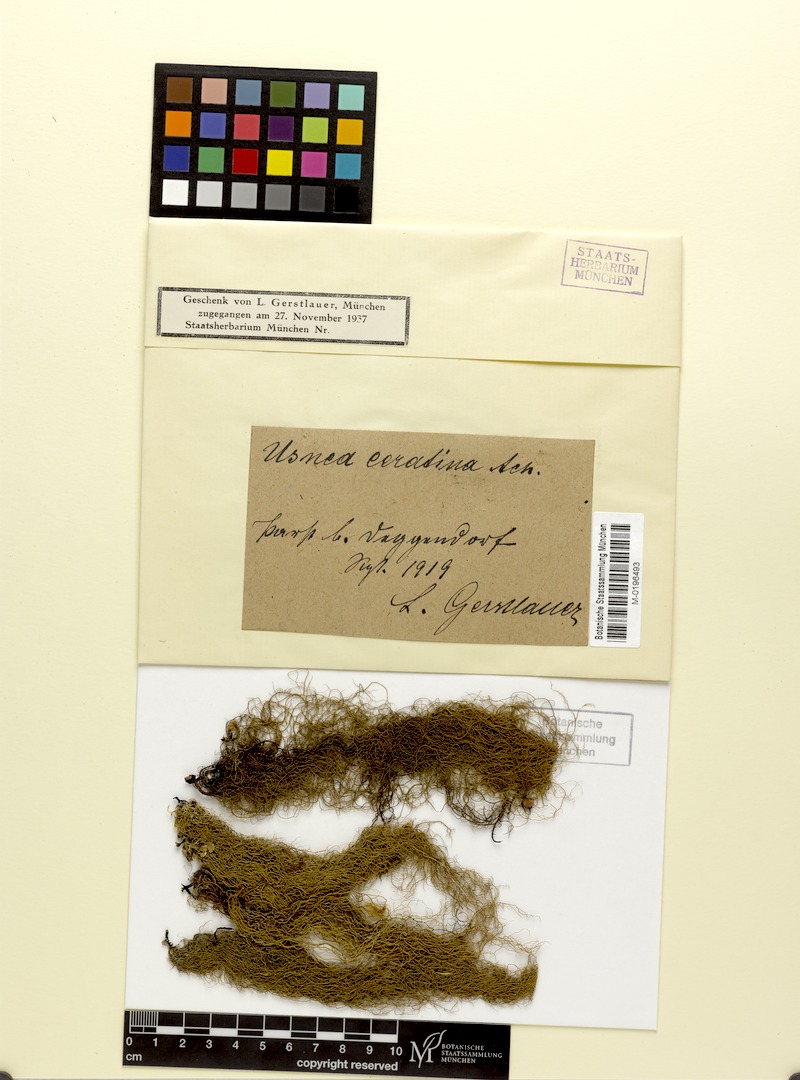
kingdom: Fungi
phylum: Ascomycota
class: Lecanoromycetes
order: Lecanorales
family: Parmeliaceae
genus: Usnea
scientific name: Usnea ceratina
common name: Warty beard lichen
